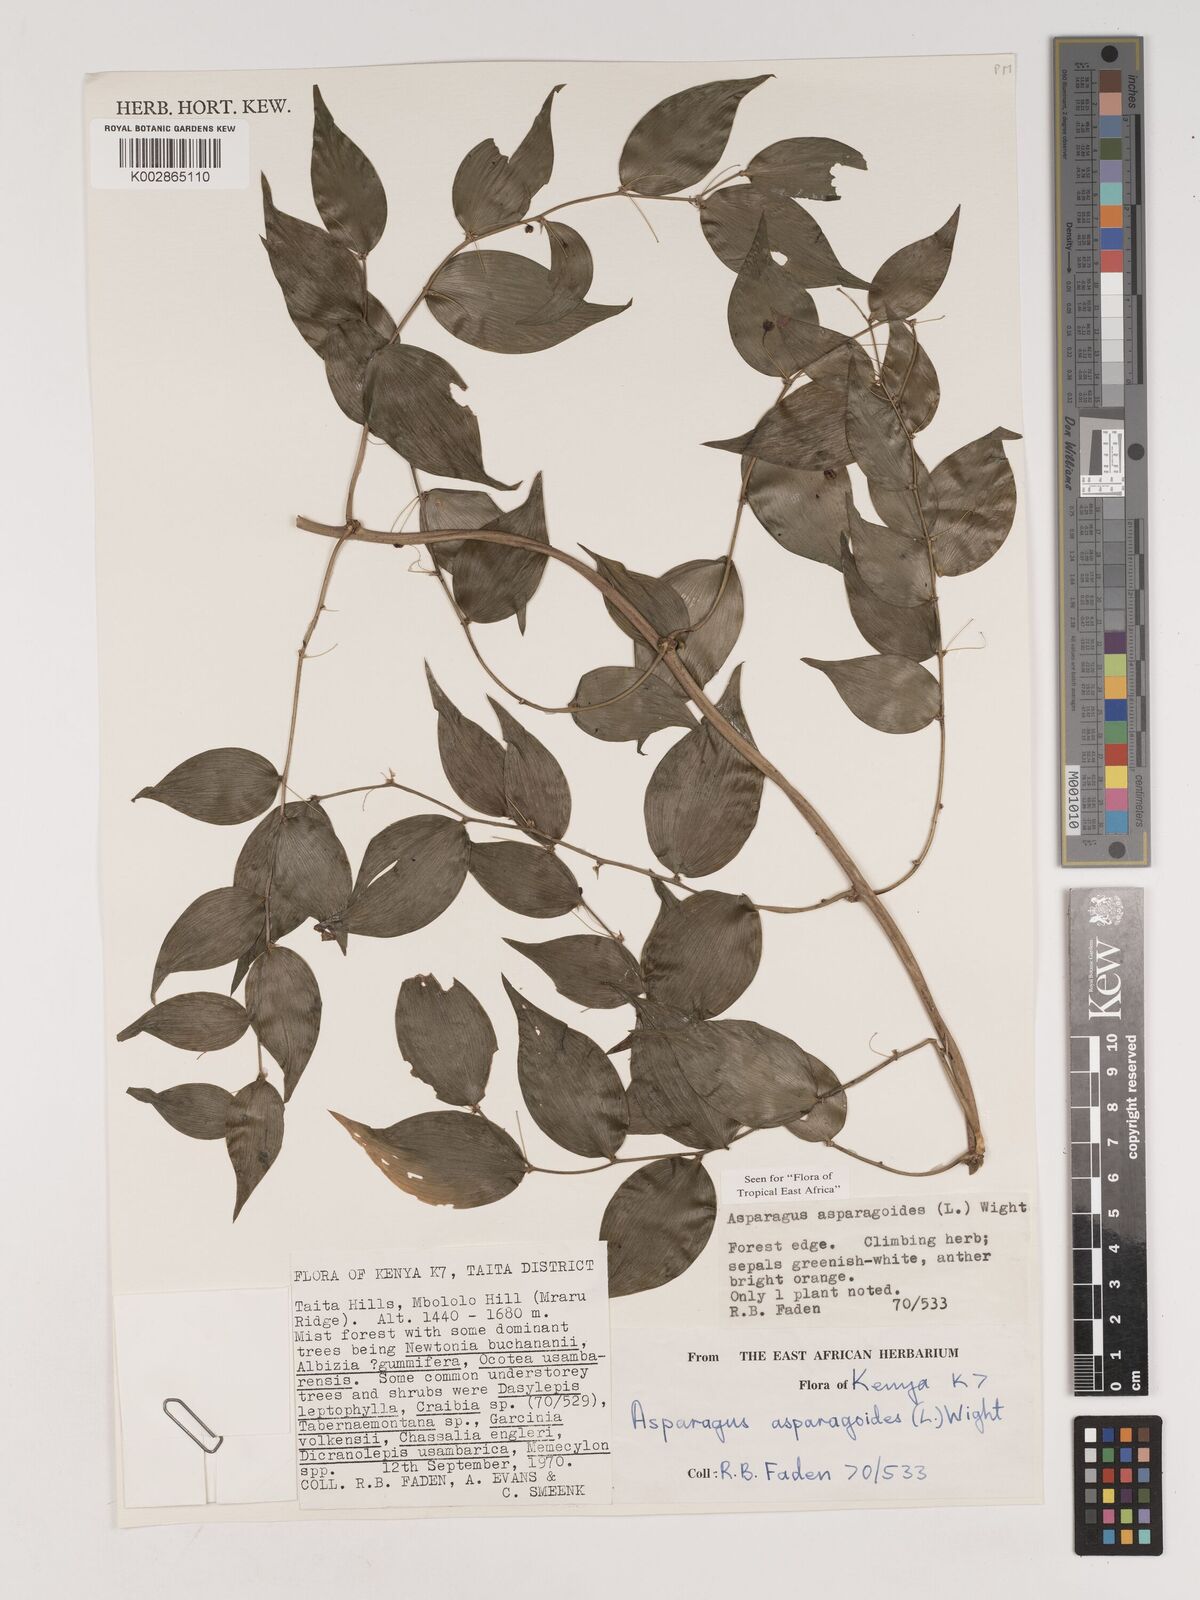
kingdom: Plantae
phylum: Tracheophyta
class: Liliopsida
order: Asparagales
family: Asparagaceae
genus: Asparagus
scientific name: Asparagus asparagoides
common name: African asparagus fern
